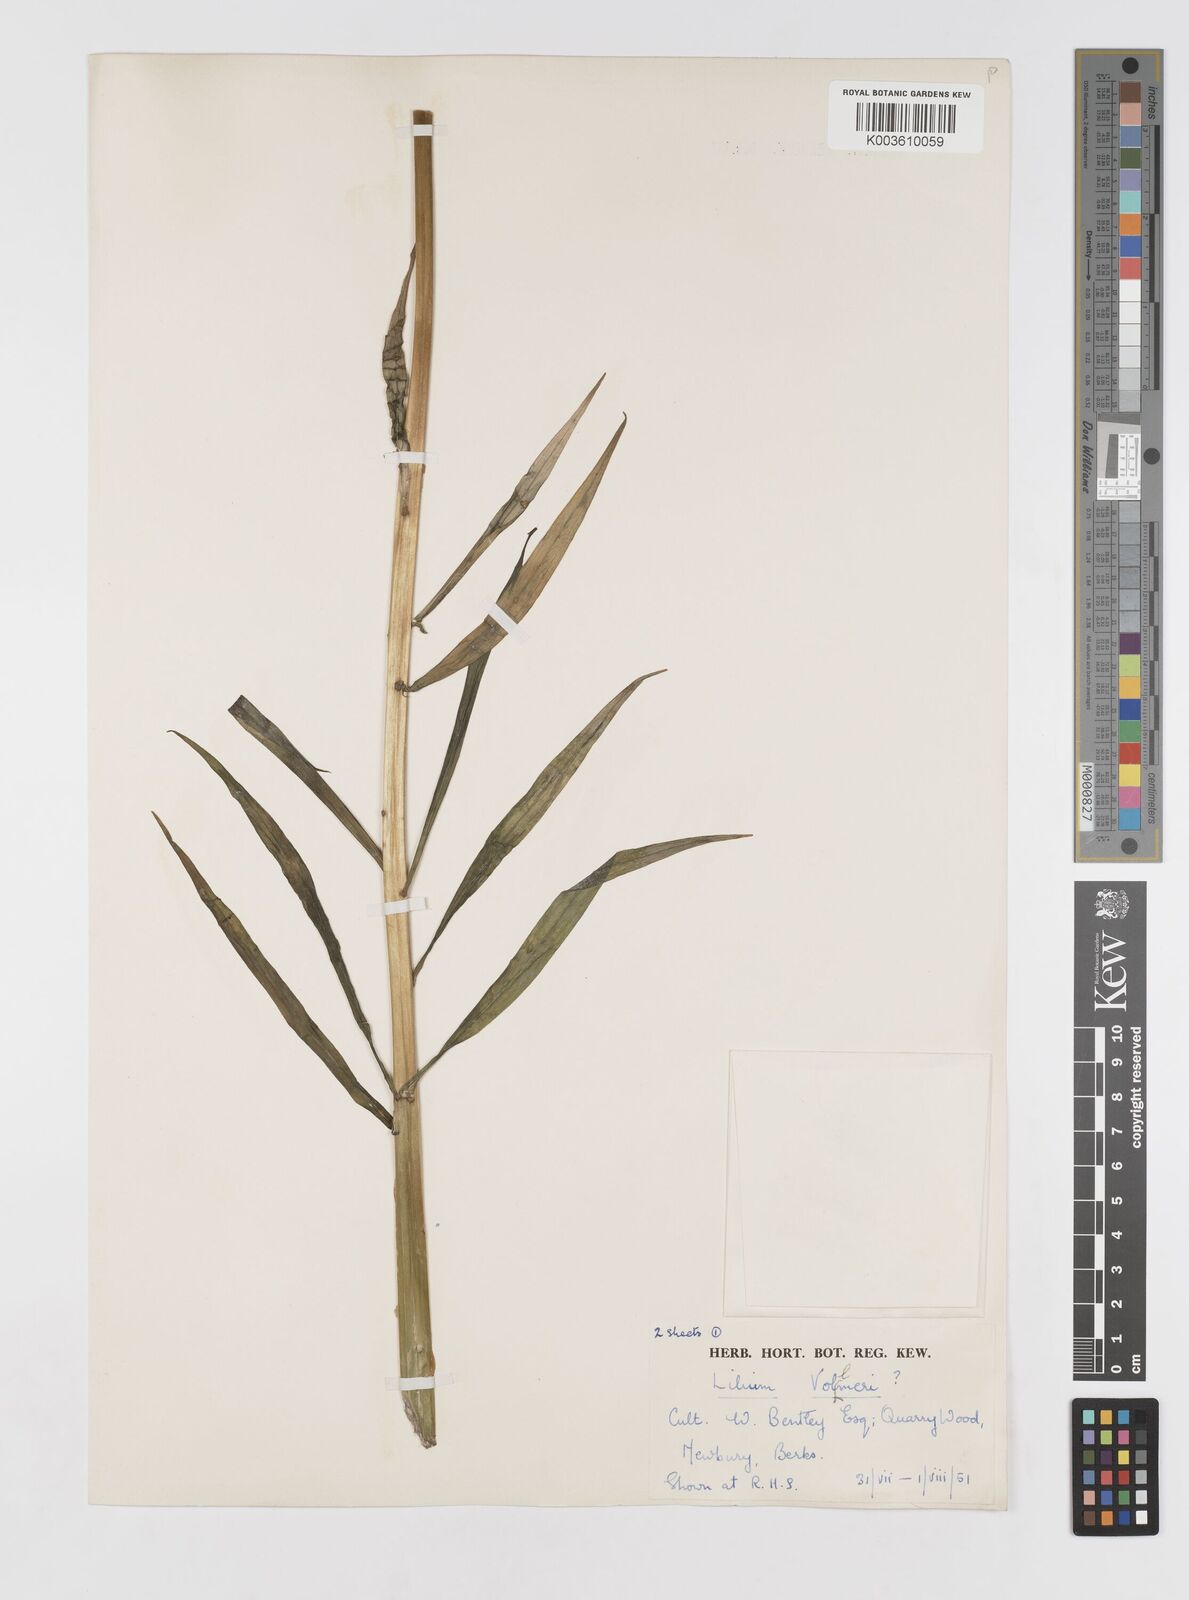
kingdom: Plantae
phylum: Tracheophyta
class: Liliopsida
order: Liliales
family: Liliaceae
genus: Lilium
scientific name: Lilium occidentale
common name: Eureka lily
